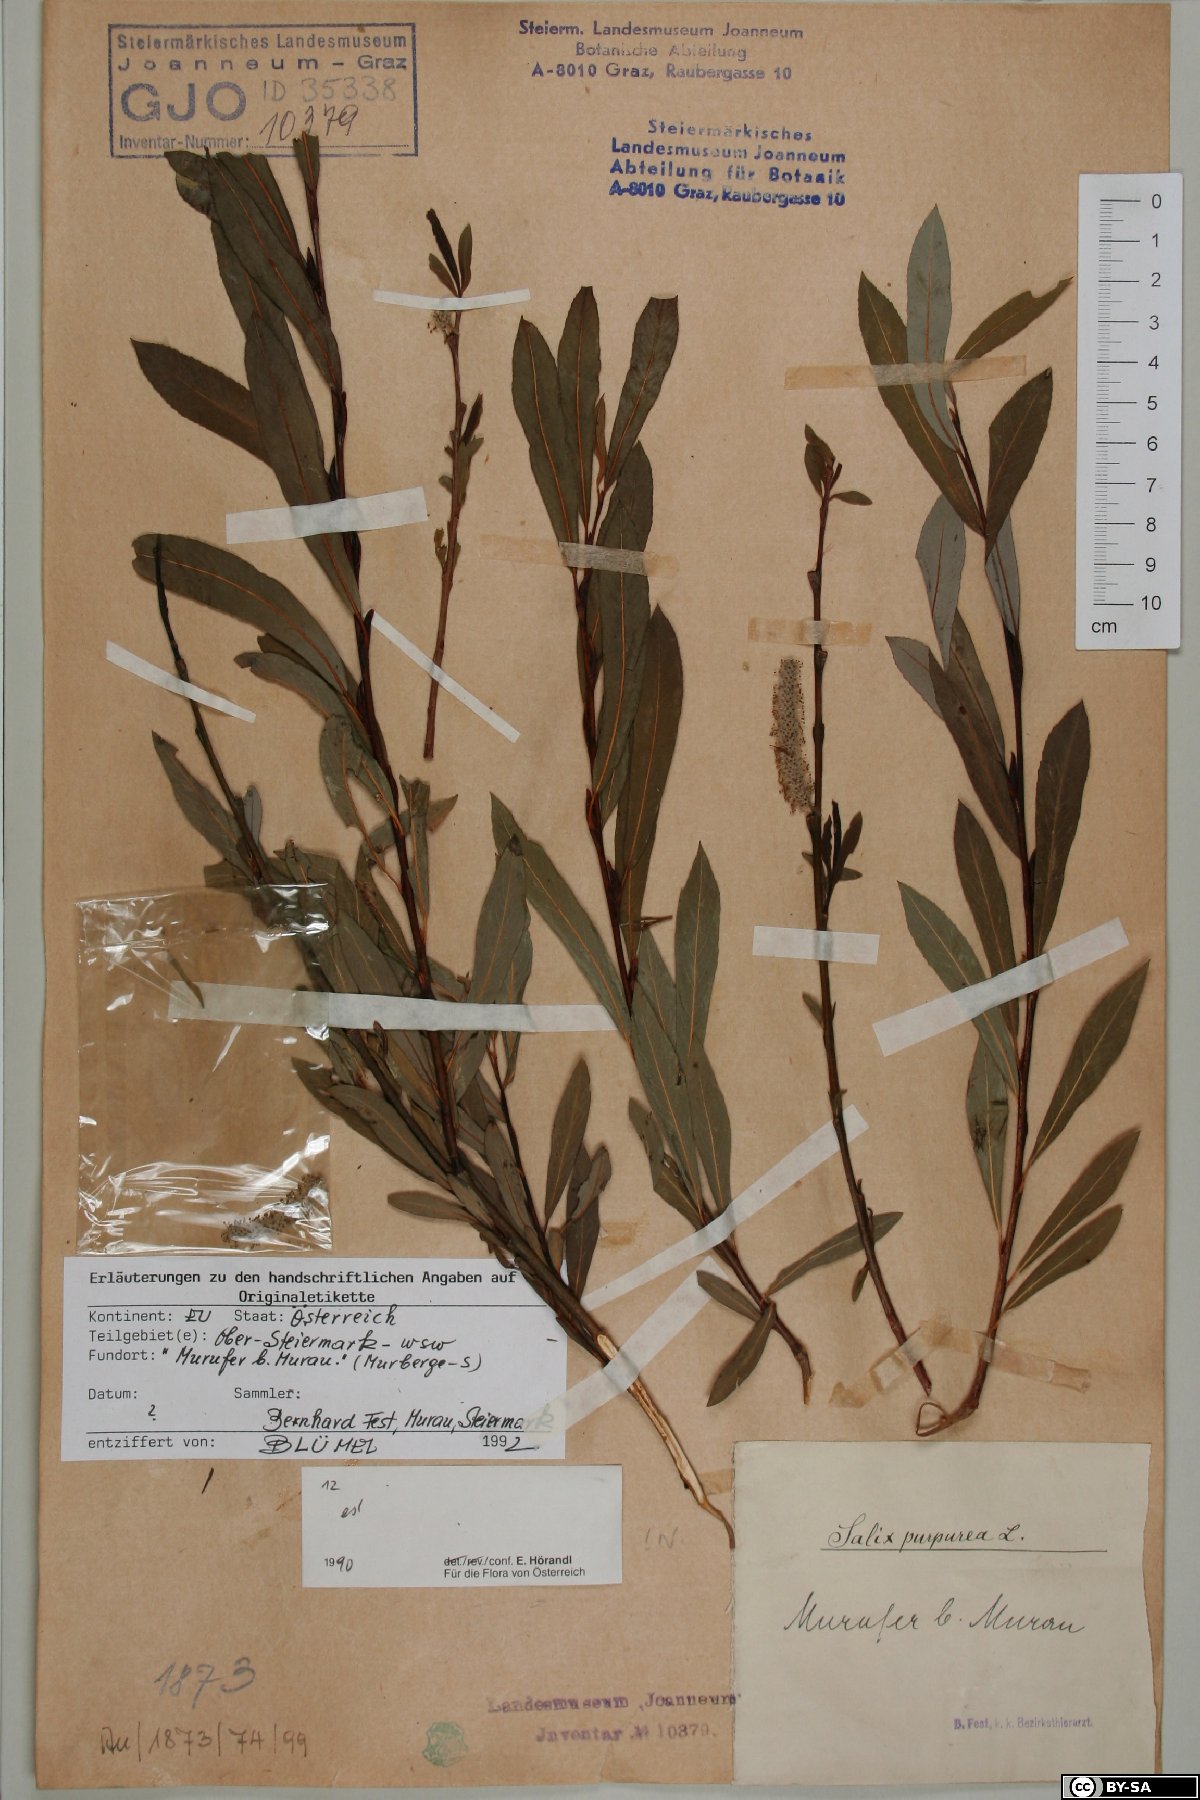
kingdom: Plantae
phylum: Tracheophyta
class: Magnoliopsida
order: Malpighiales
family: Salicaceae
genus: Salix
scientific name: Salix purpurea
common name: Purple willow
